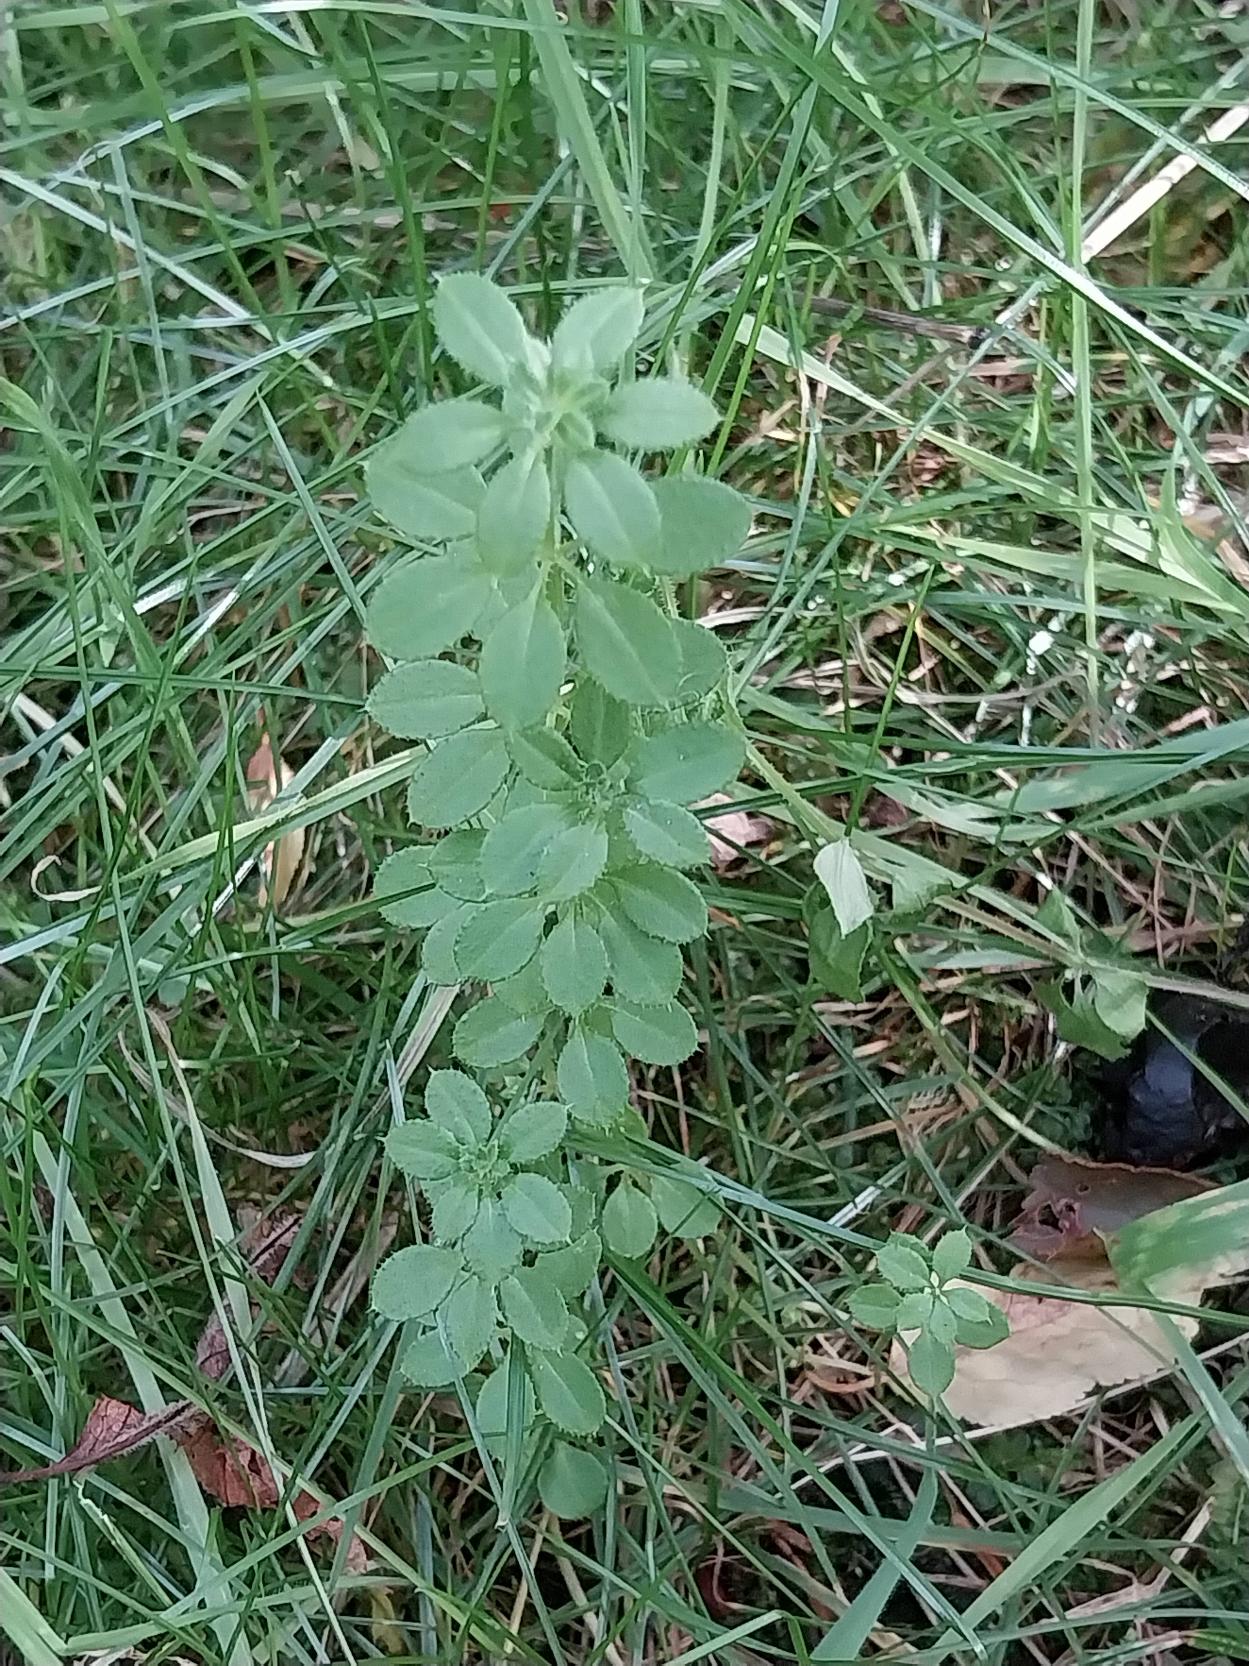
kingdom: Plantae
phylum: Tracheophyta
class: Magnoliopsida
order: Gentianales
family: Rubiaceae
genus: Galium
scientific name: Galium aparine
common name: Burre-snerre
